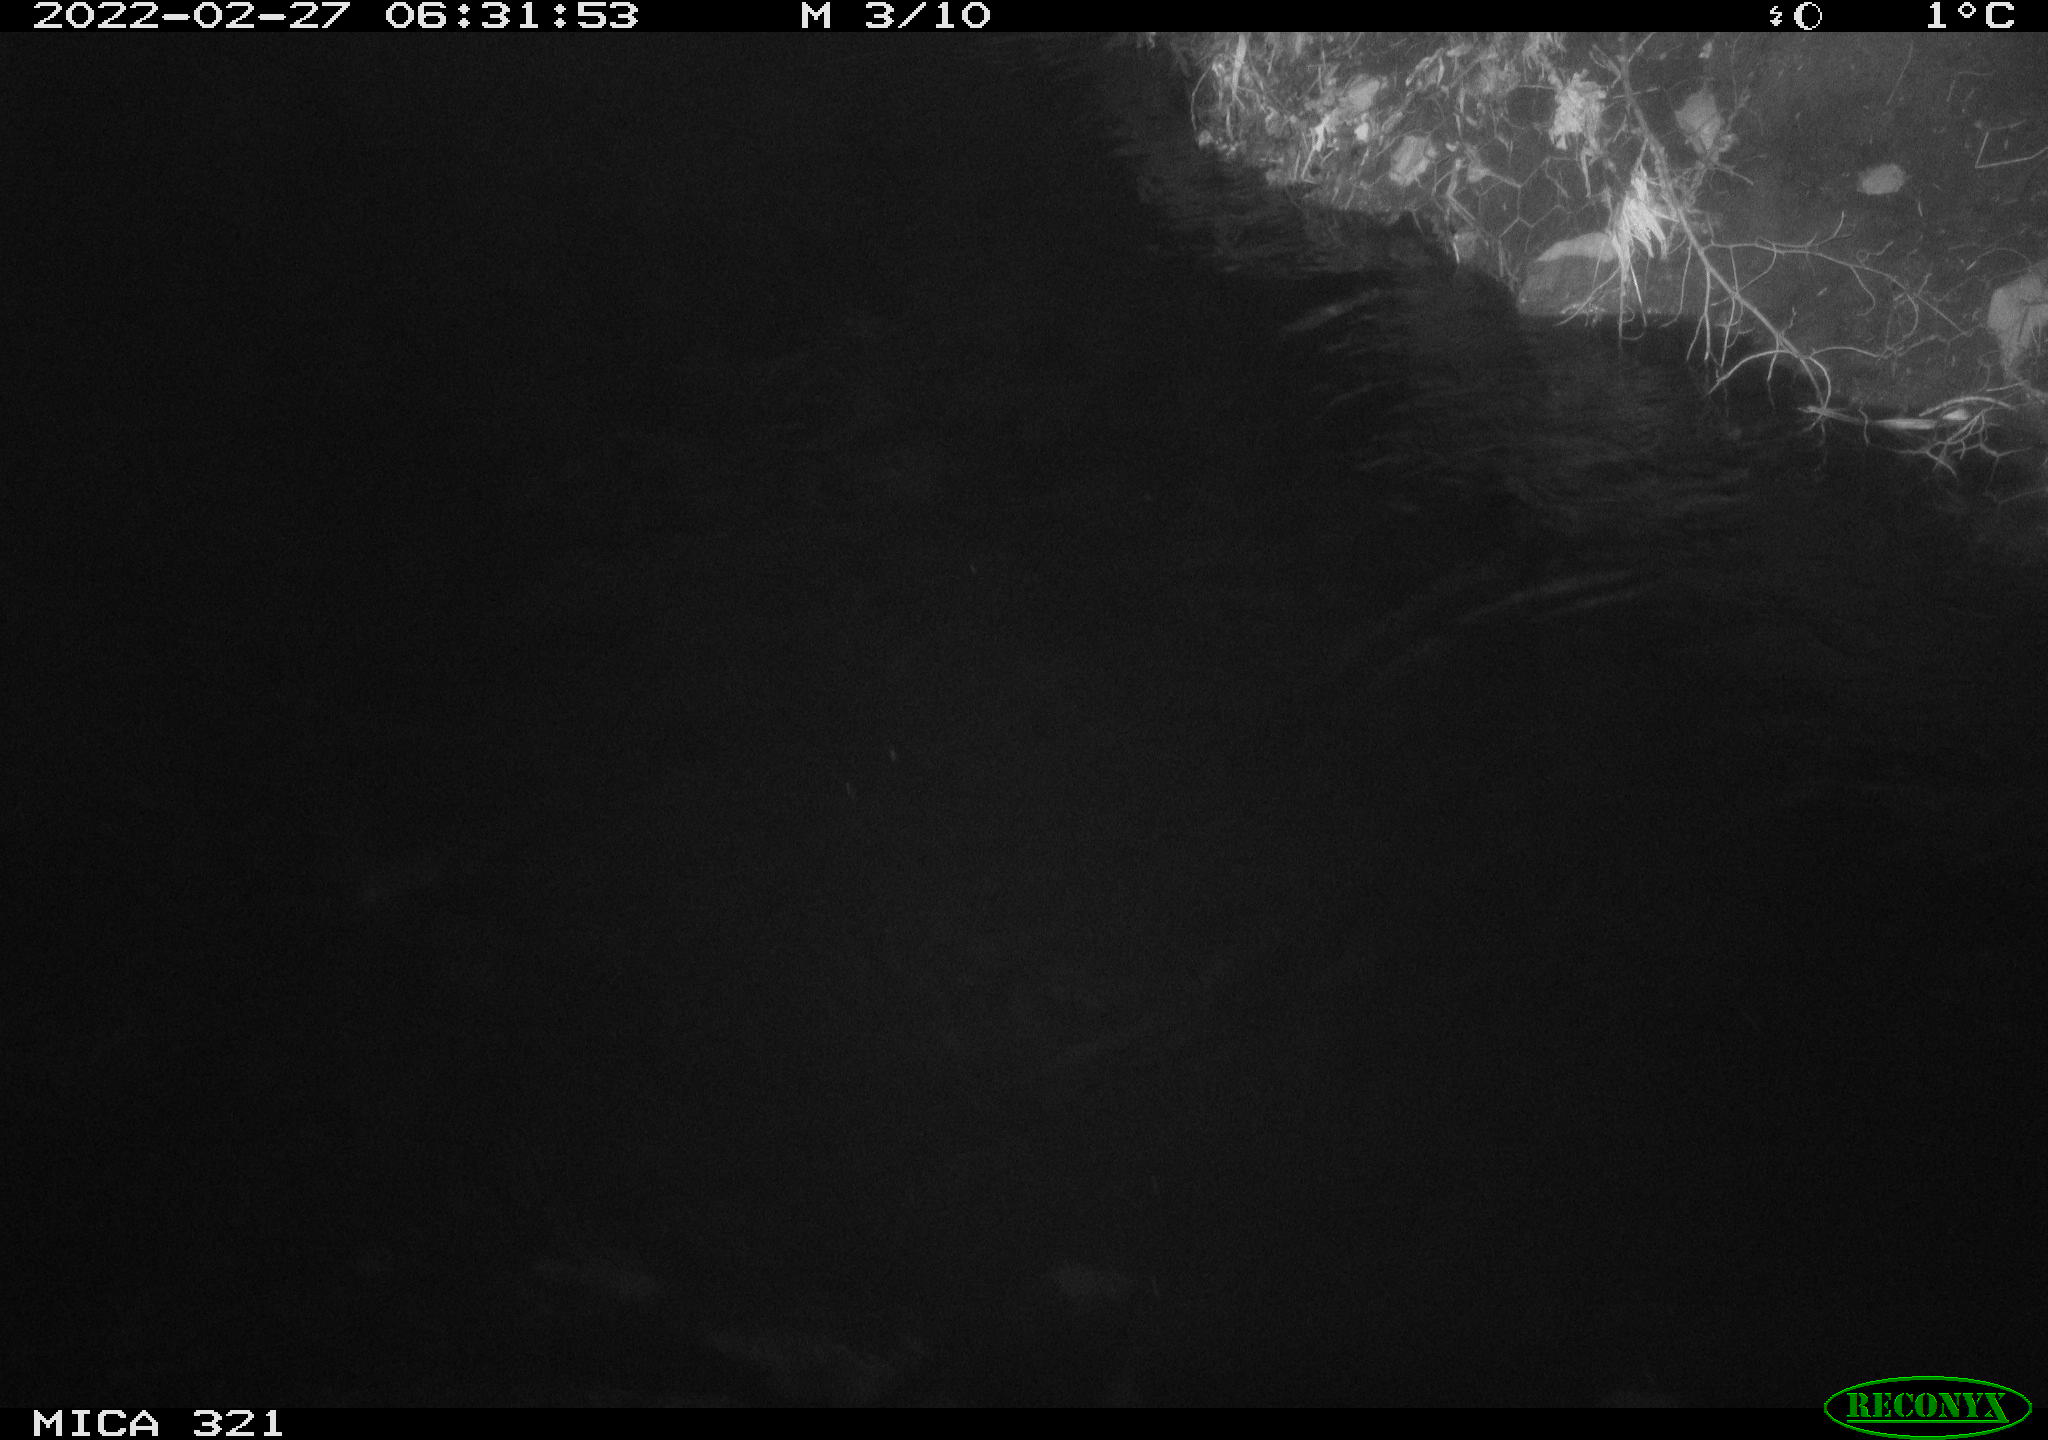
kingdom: Animalia
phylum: Chordata
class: Aves
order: Anseriformes
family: Anatidae
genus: Anas
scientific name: Anas platyrhynchos
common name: Mallard
